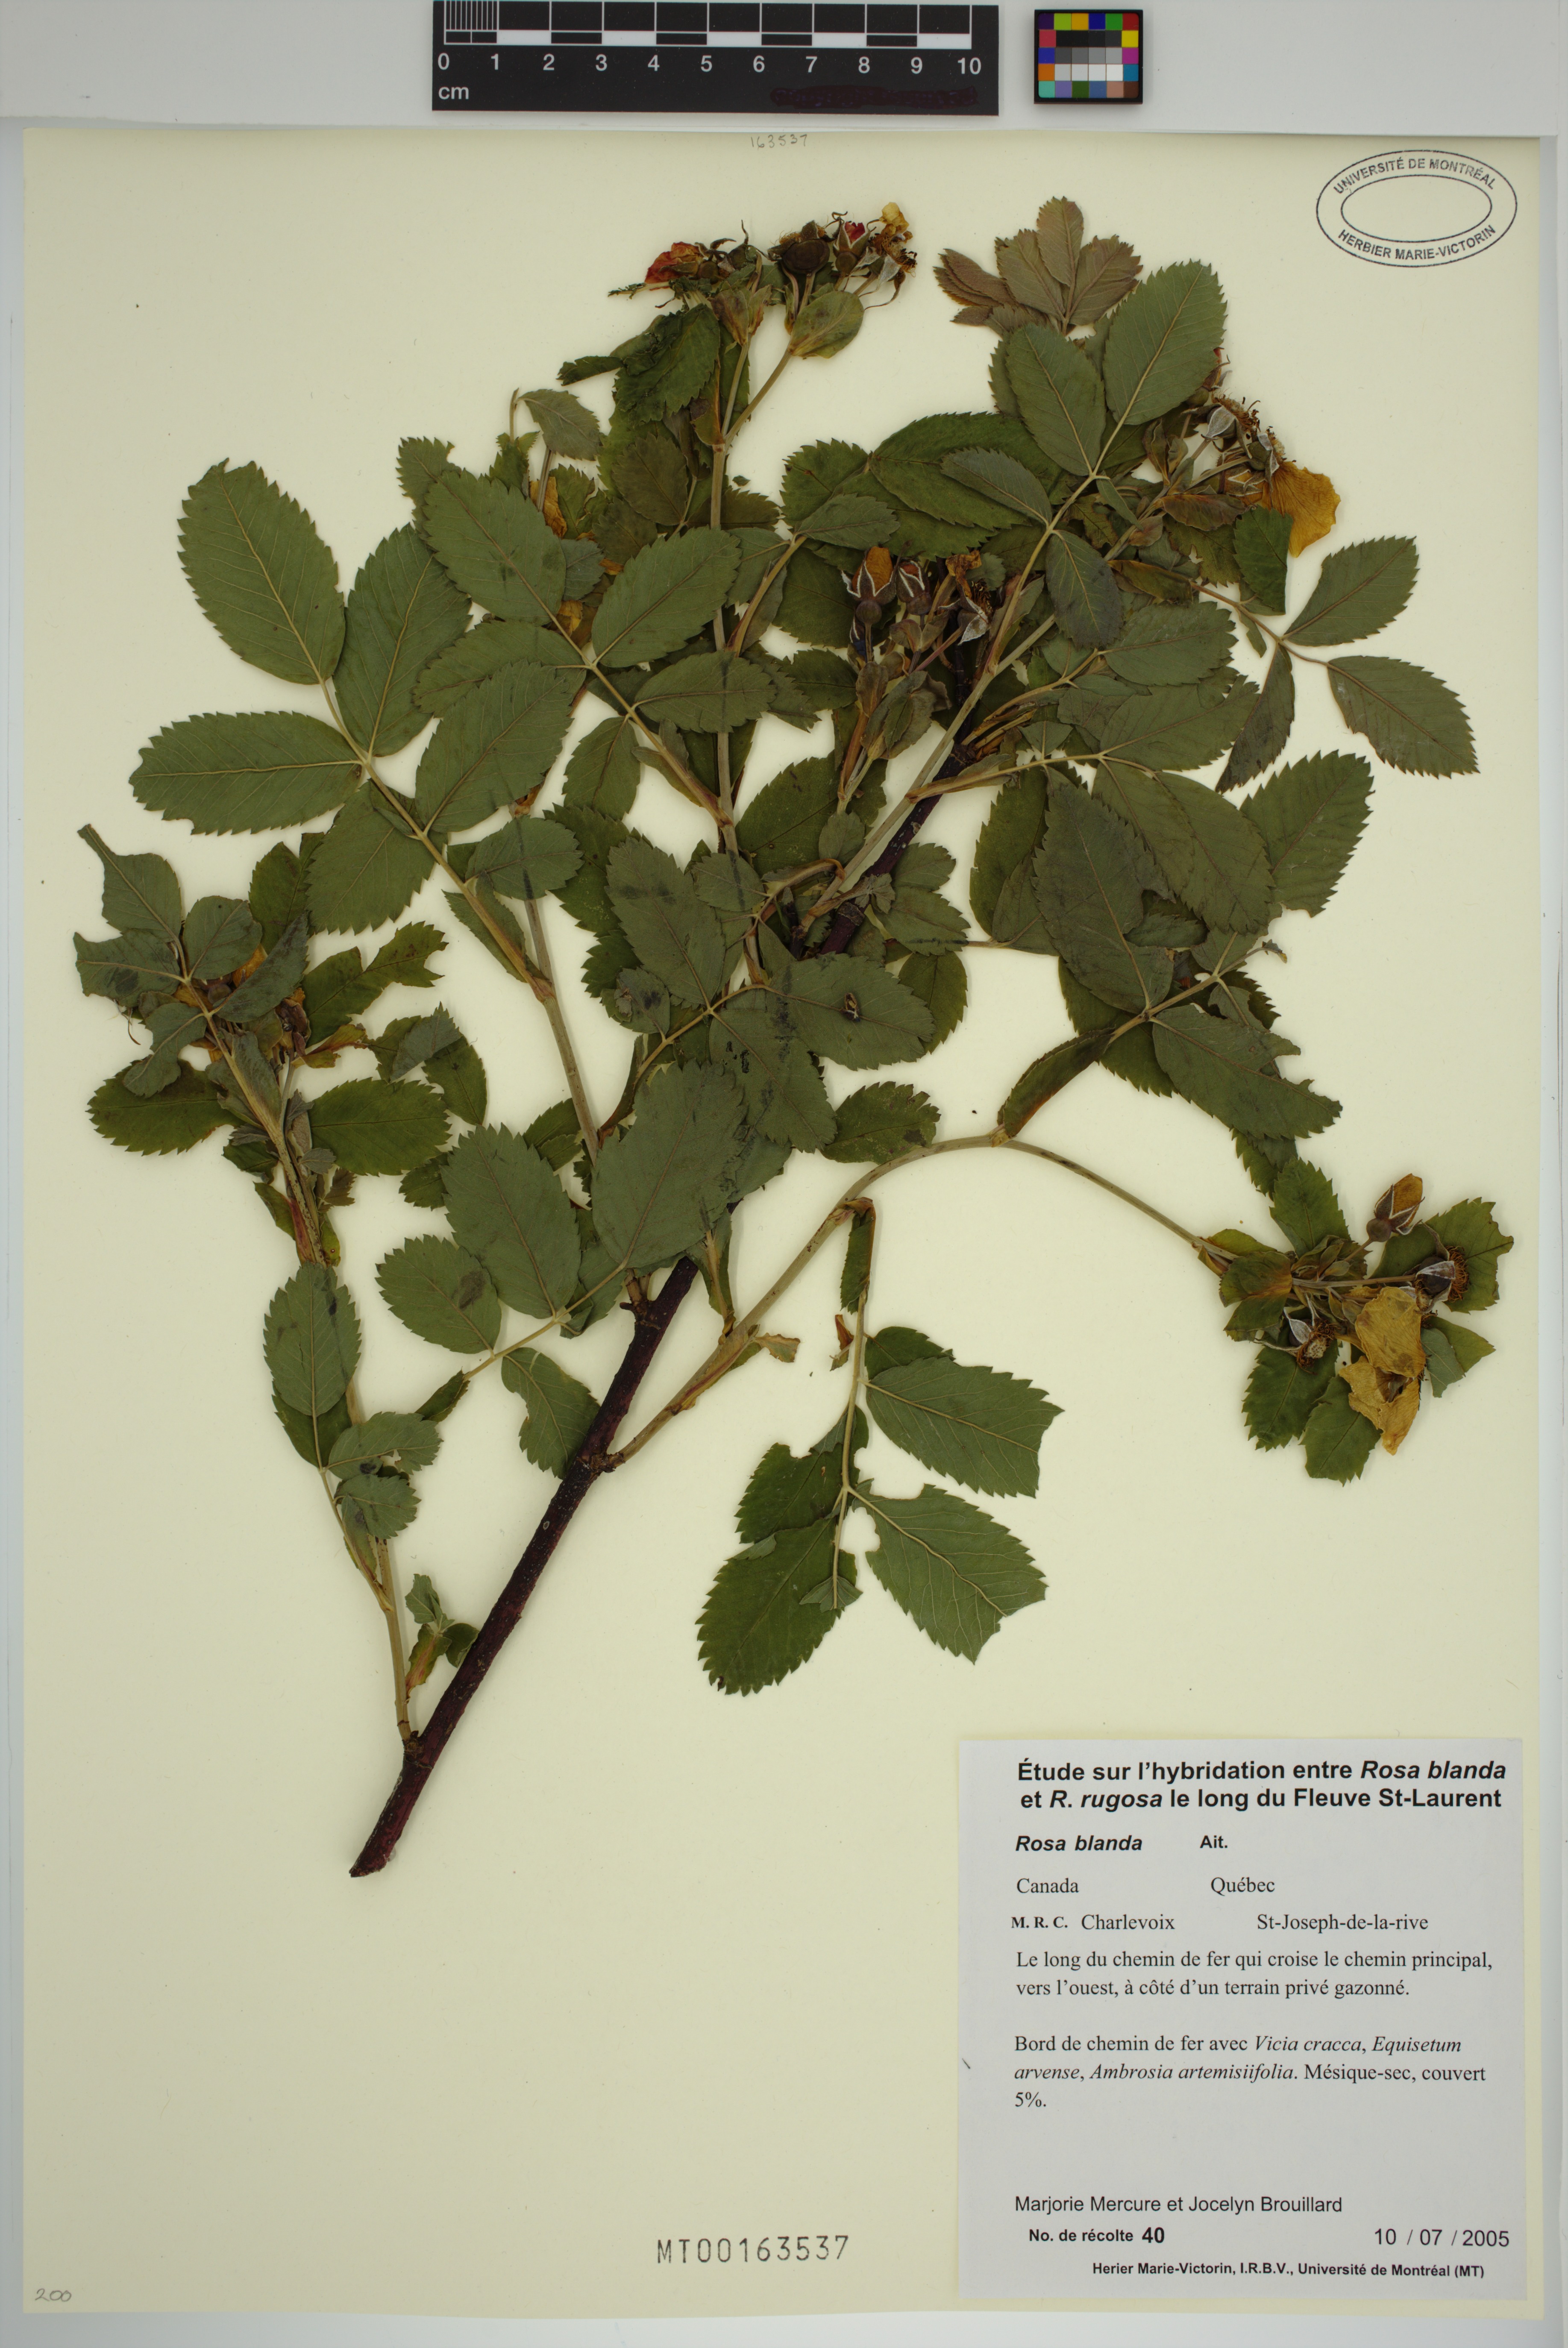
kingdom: Plantae
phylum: Tracheophyta
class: Magnoliopsida
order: Rosales
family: Rosaceae
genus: Rosa
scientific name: Rosa blanda
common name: Smooth rose
